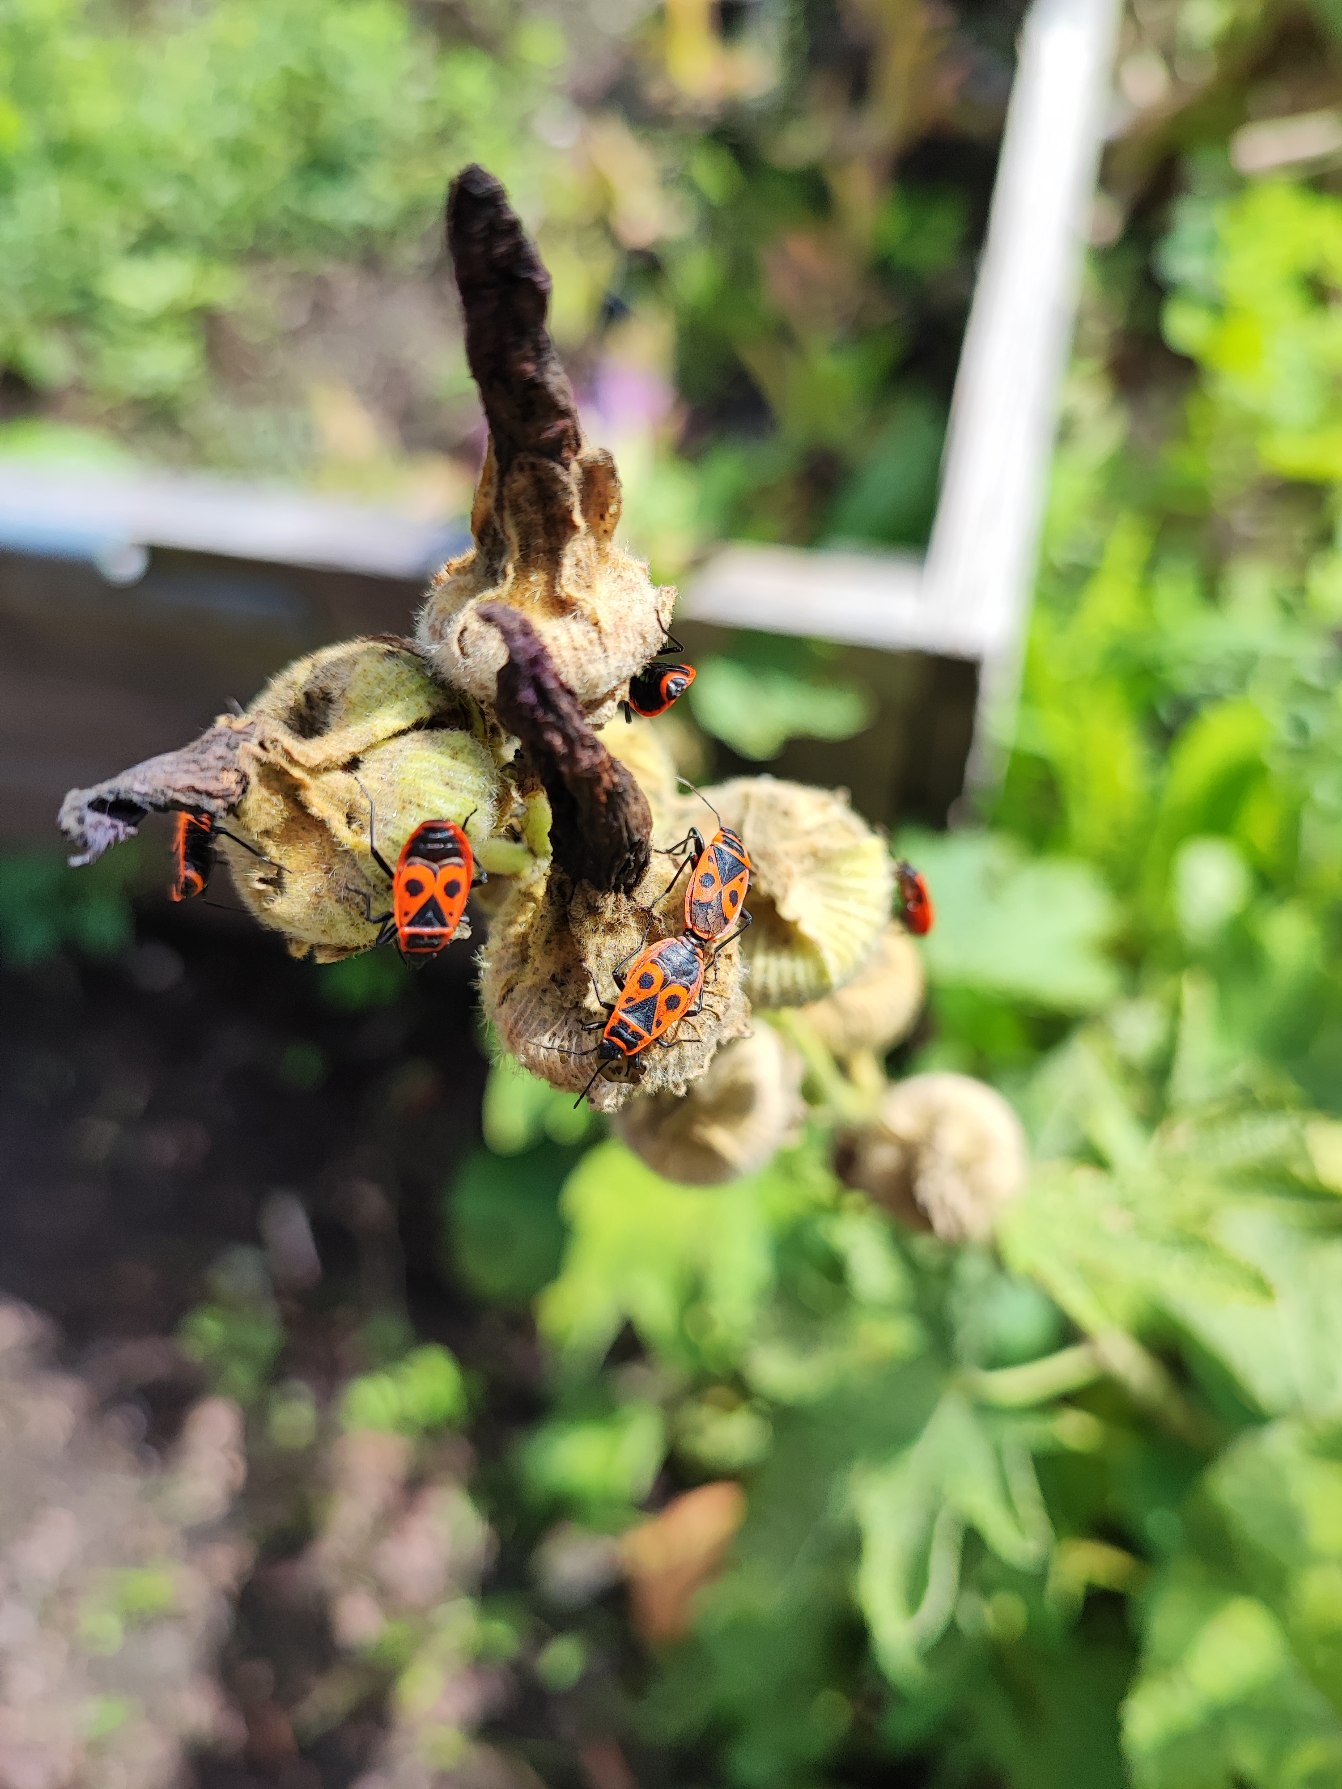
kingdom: Animalia
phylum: Arthropoda
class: Insecta
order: Hemiptera
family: Pyrrhocoridae
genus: Pyrrhocoris
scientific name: Pyrrhocoris apterus
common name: Ildtæge
